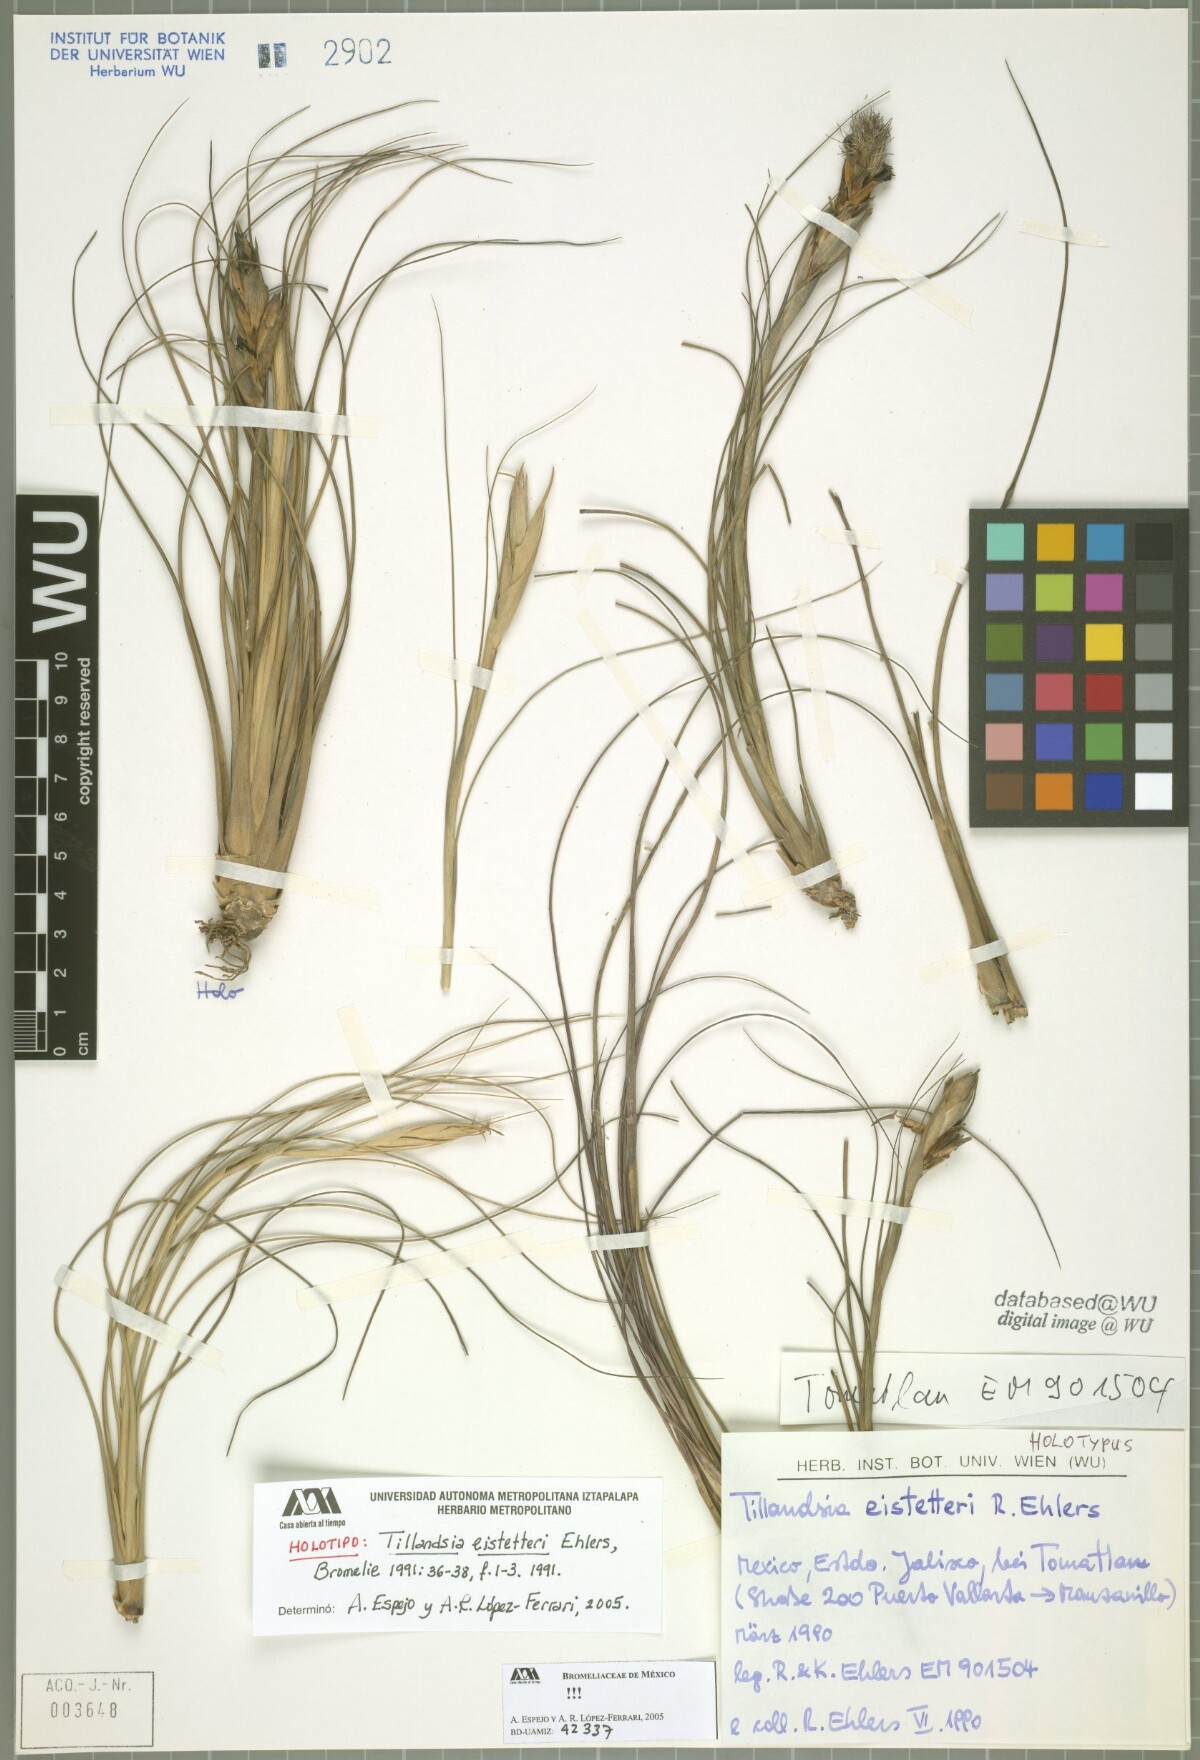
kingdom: Plantae
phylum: Tracheophyta
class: Liliopsida
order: Poales
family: Bromeliaceae
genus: Tillandsia
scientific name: Tillandsia eistetteri
